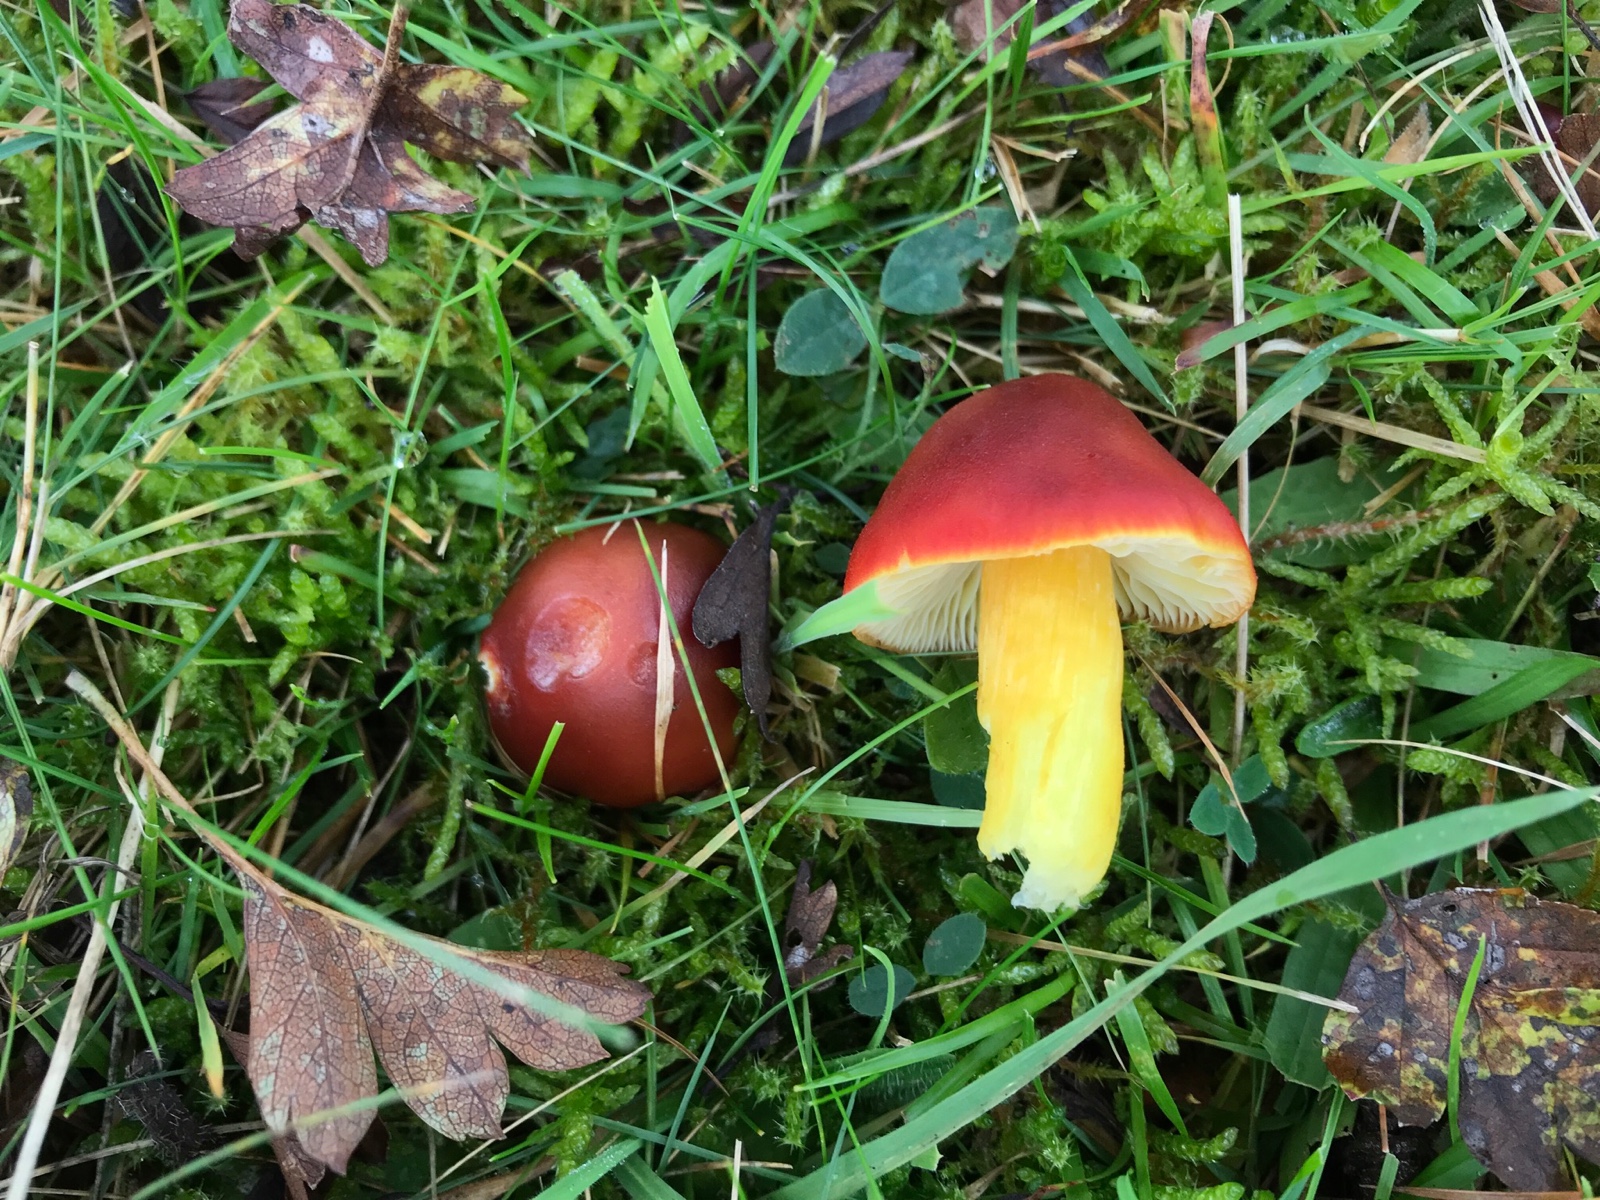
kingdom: Fungi
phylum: Basidiomycota
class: Agaricomycetes
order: Agaricales
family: Hygrophoraceae
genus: Hygrocybe
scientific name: Hygrocybe punicea
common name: skarlagen-vokshat
